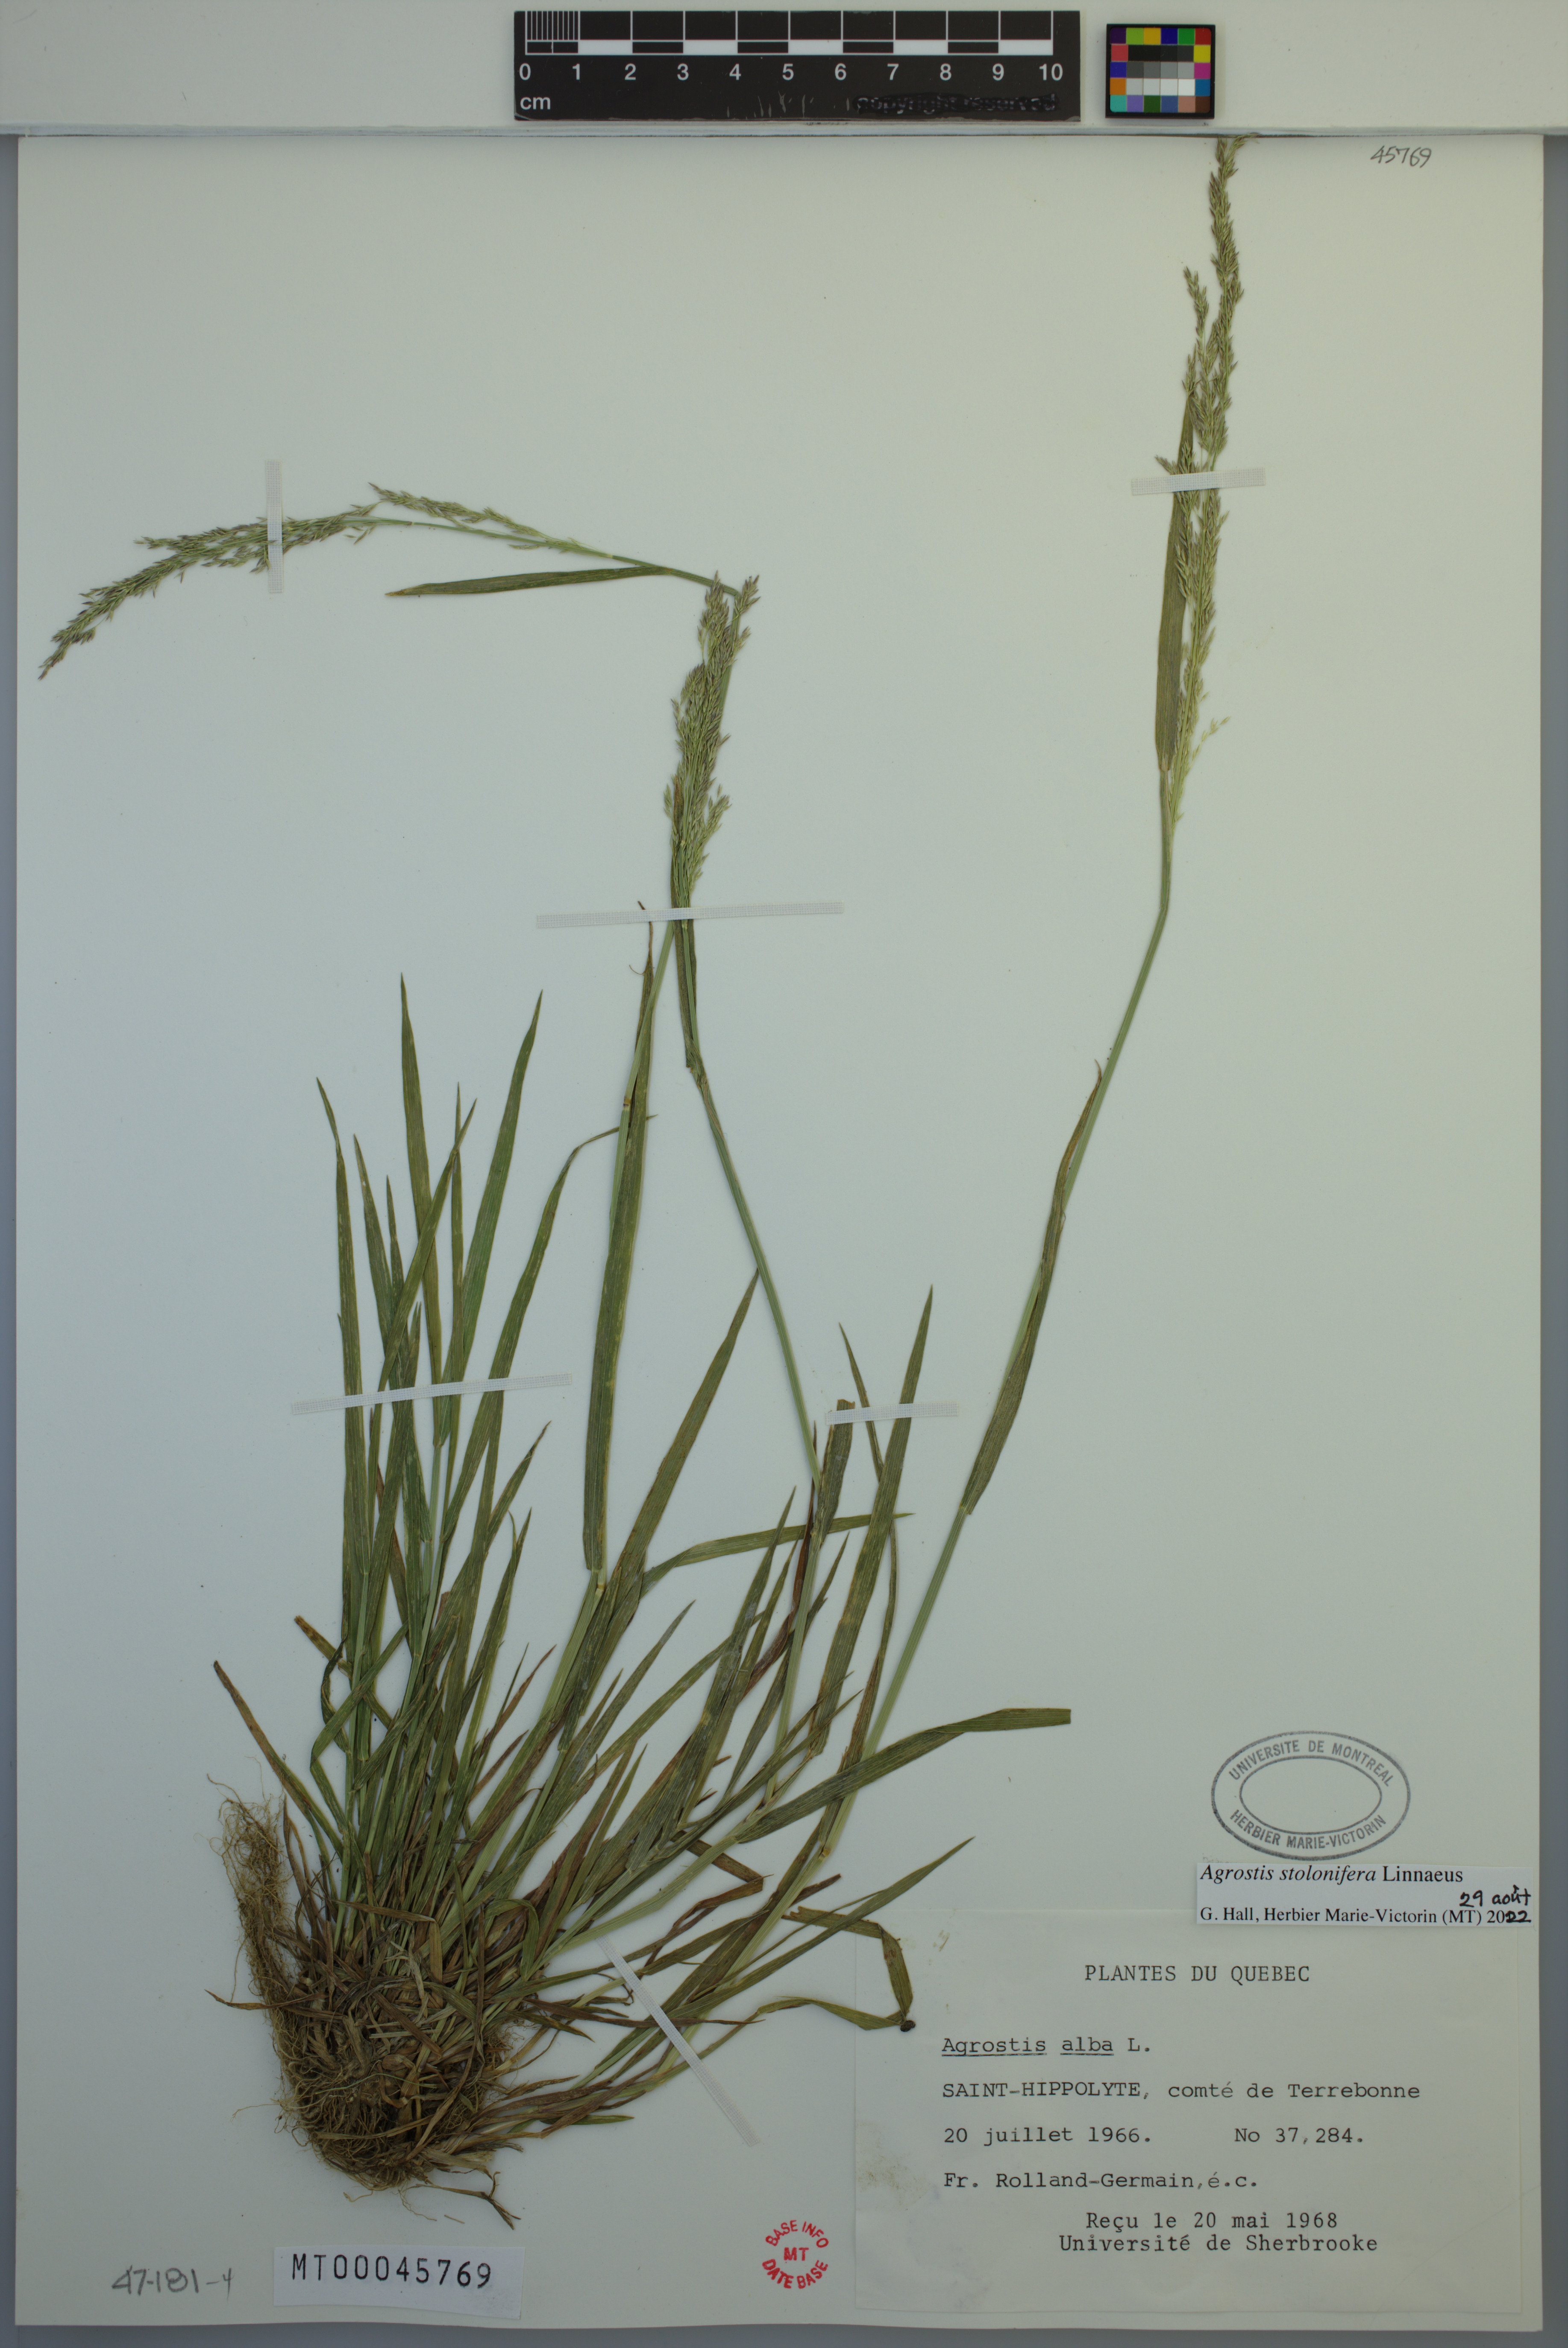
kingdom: Plantae
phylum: Tracheophyta
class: Liliopsida
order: Poales
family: Poaceae
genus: Agrostis
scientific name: Agrostis stolonifera
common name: Creeping bentgrass
